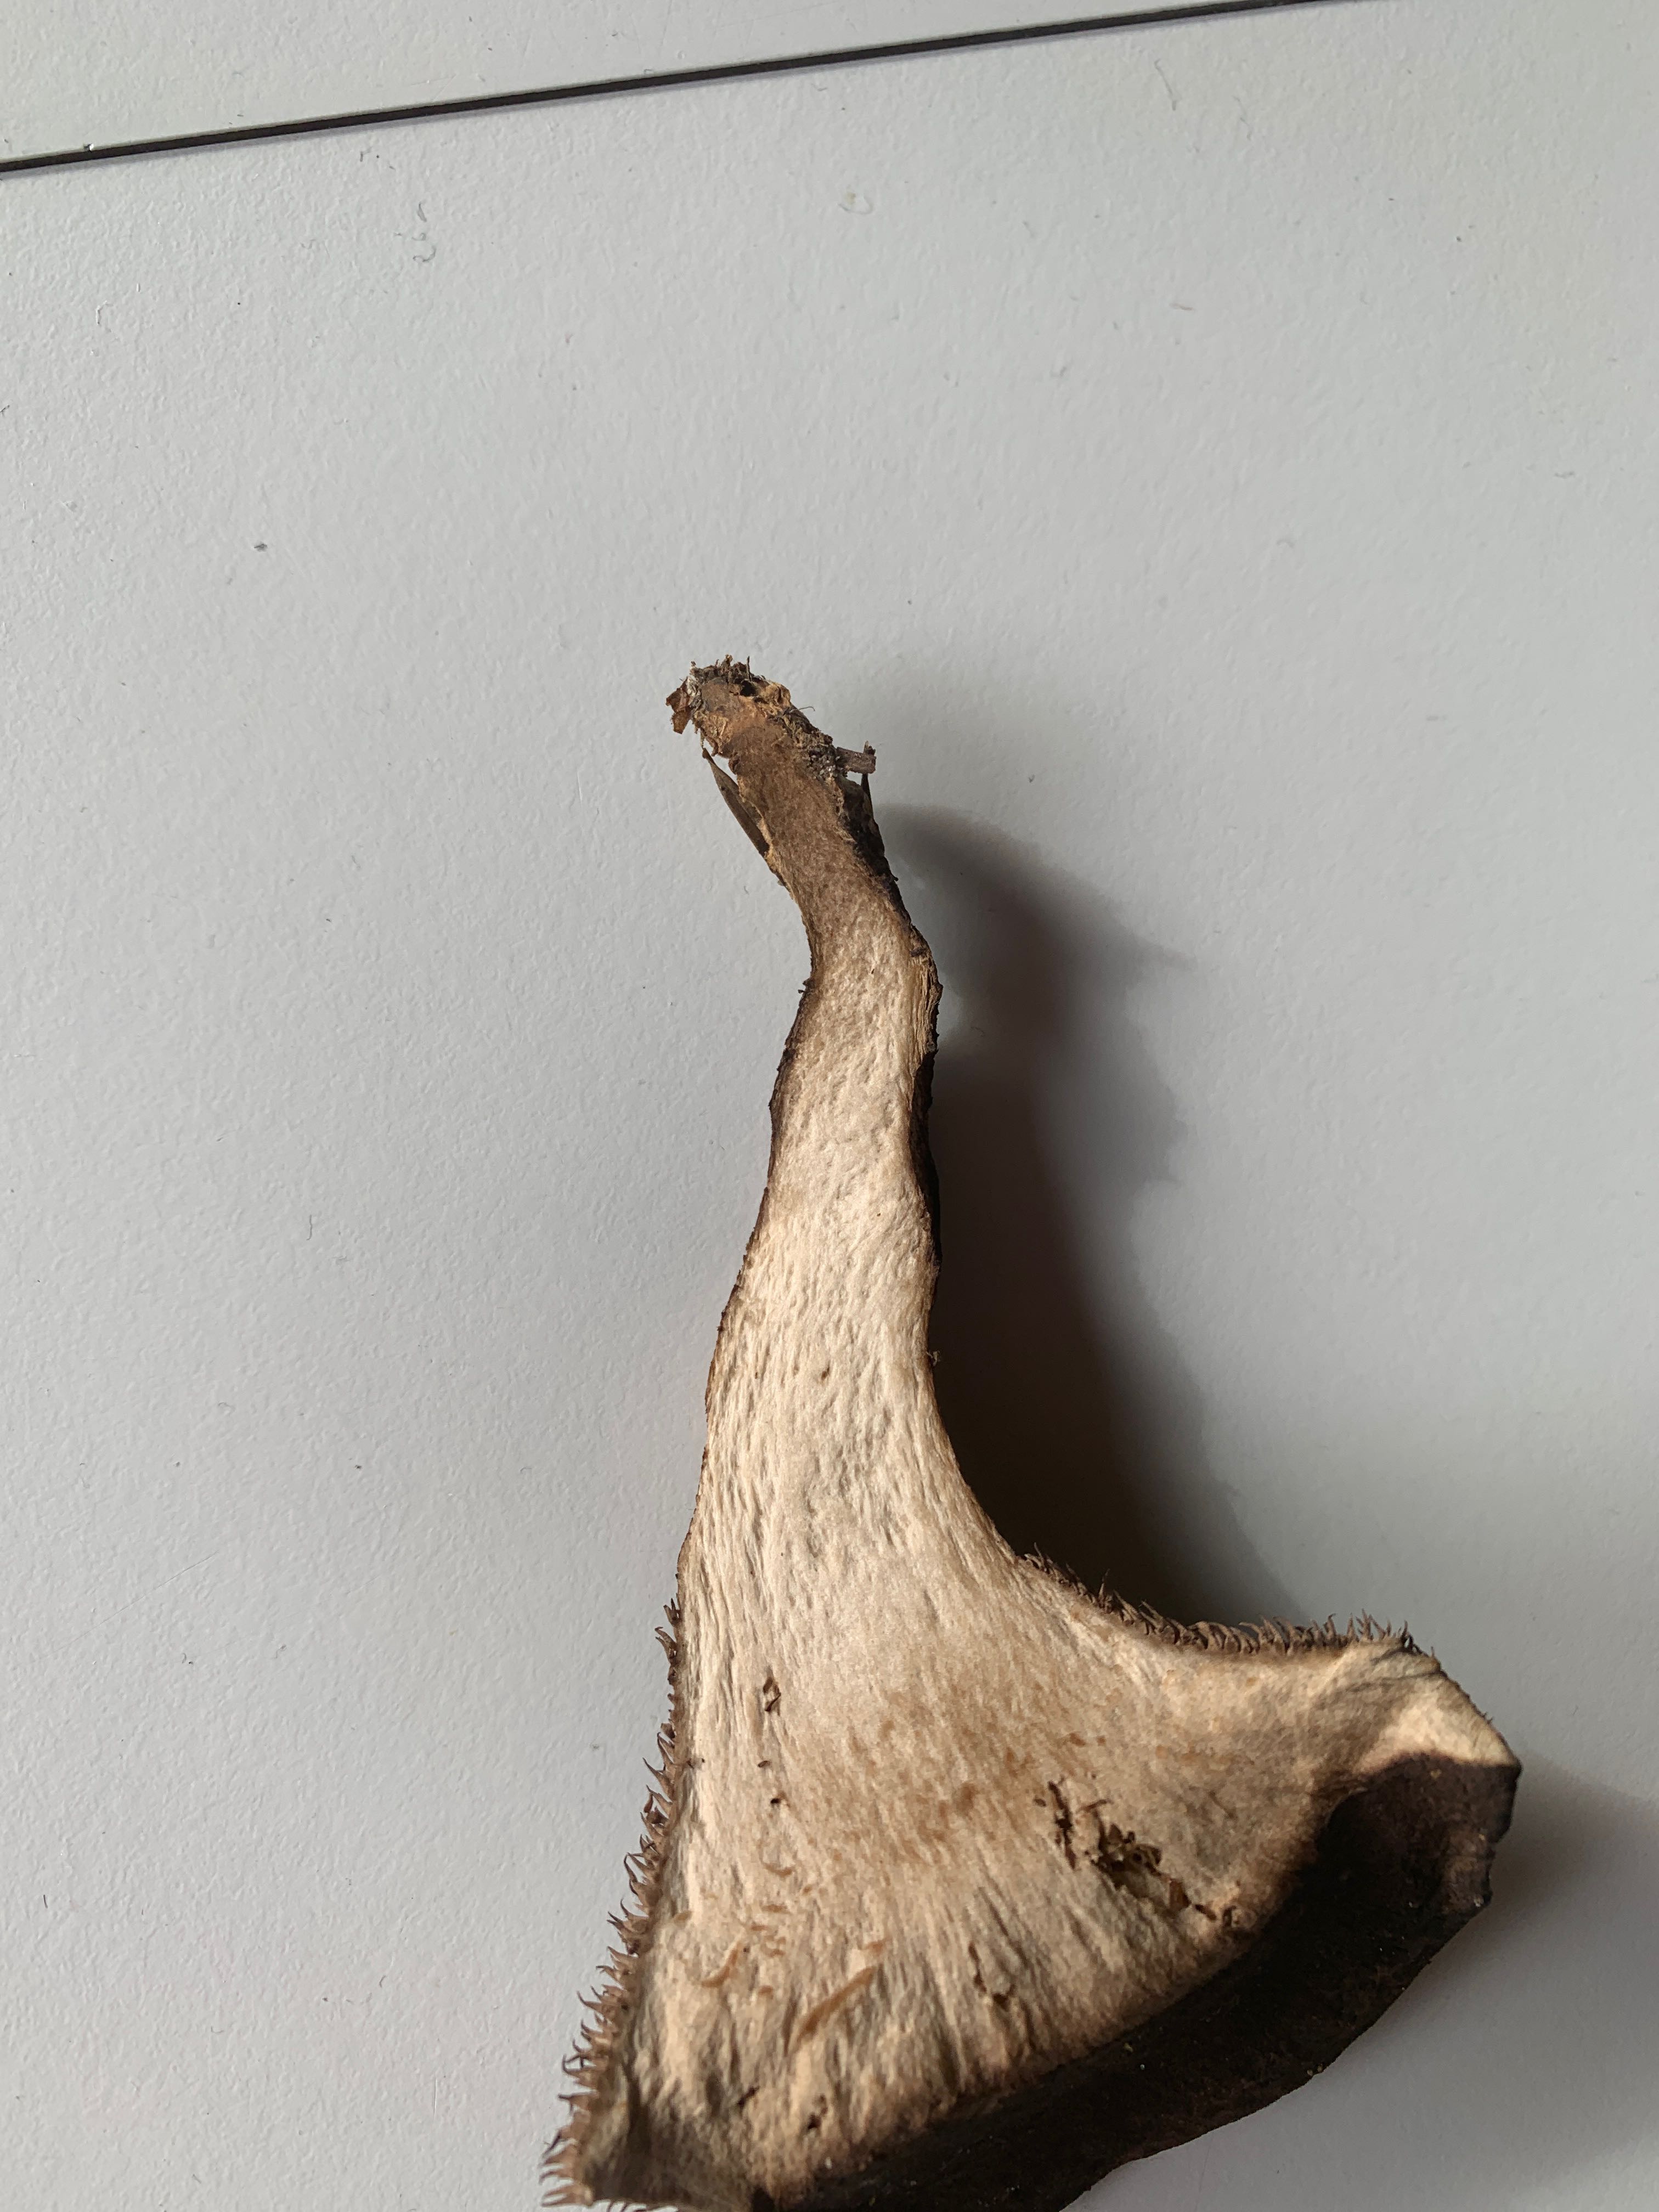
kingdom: Fungi
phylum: Basidiomycota
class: Agaricomycetes
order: Thelephorales
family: Bankeraceae
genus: Sarcodon
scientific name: Sarcodon imbricatus
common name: skællet kødpigsvamp
